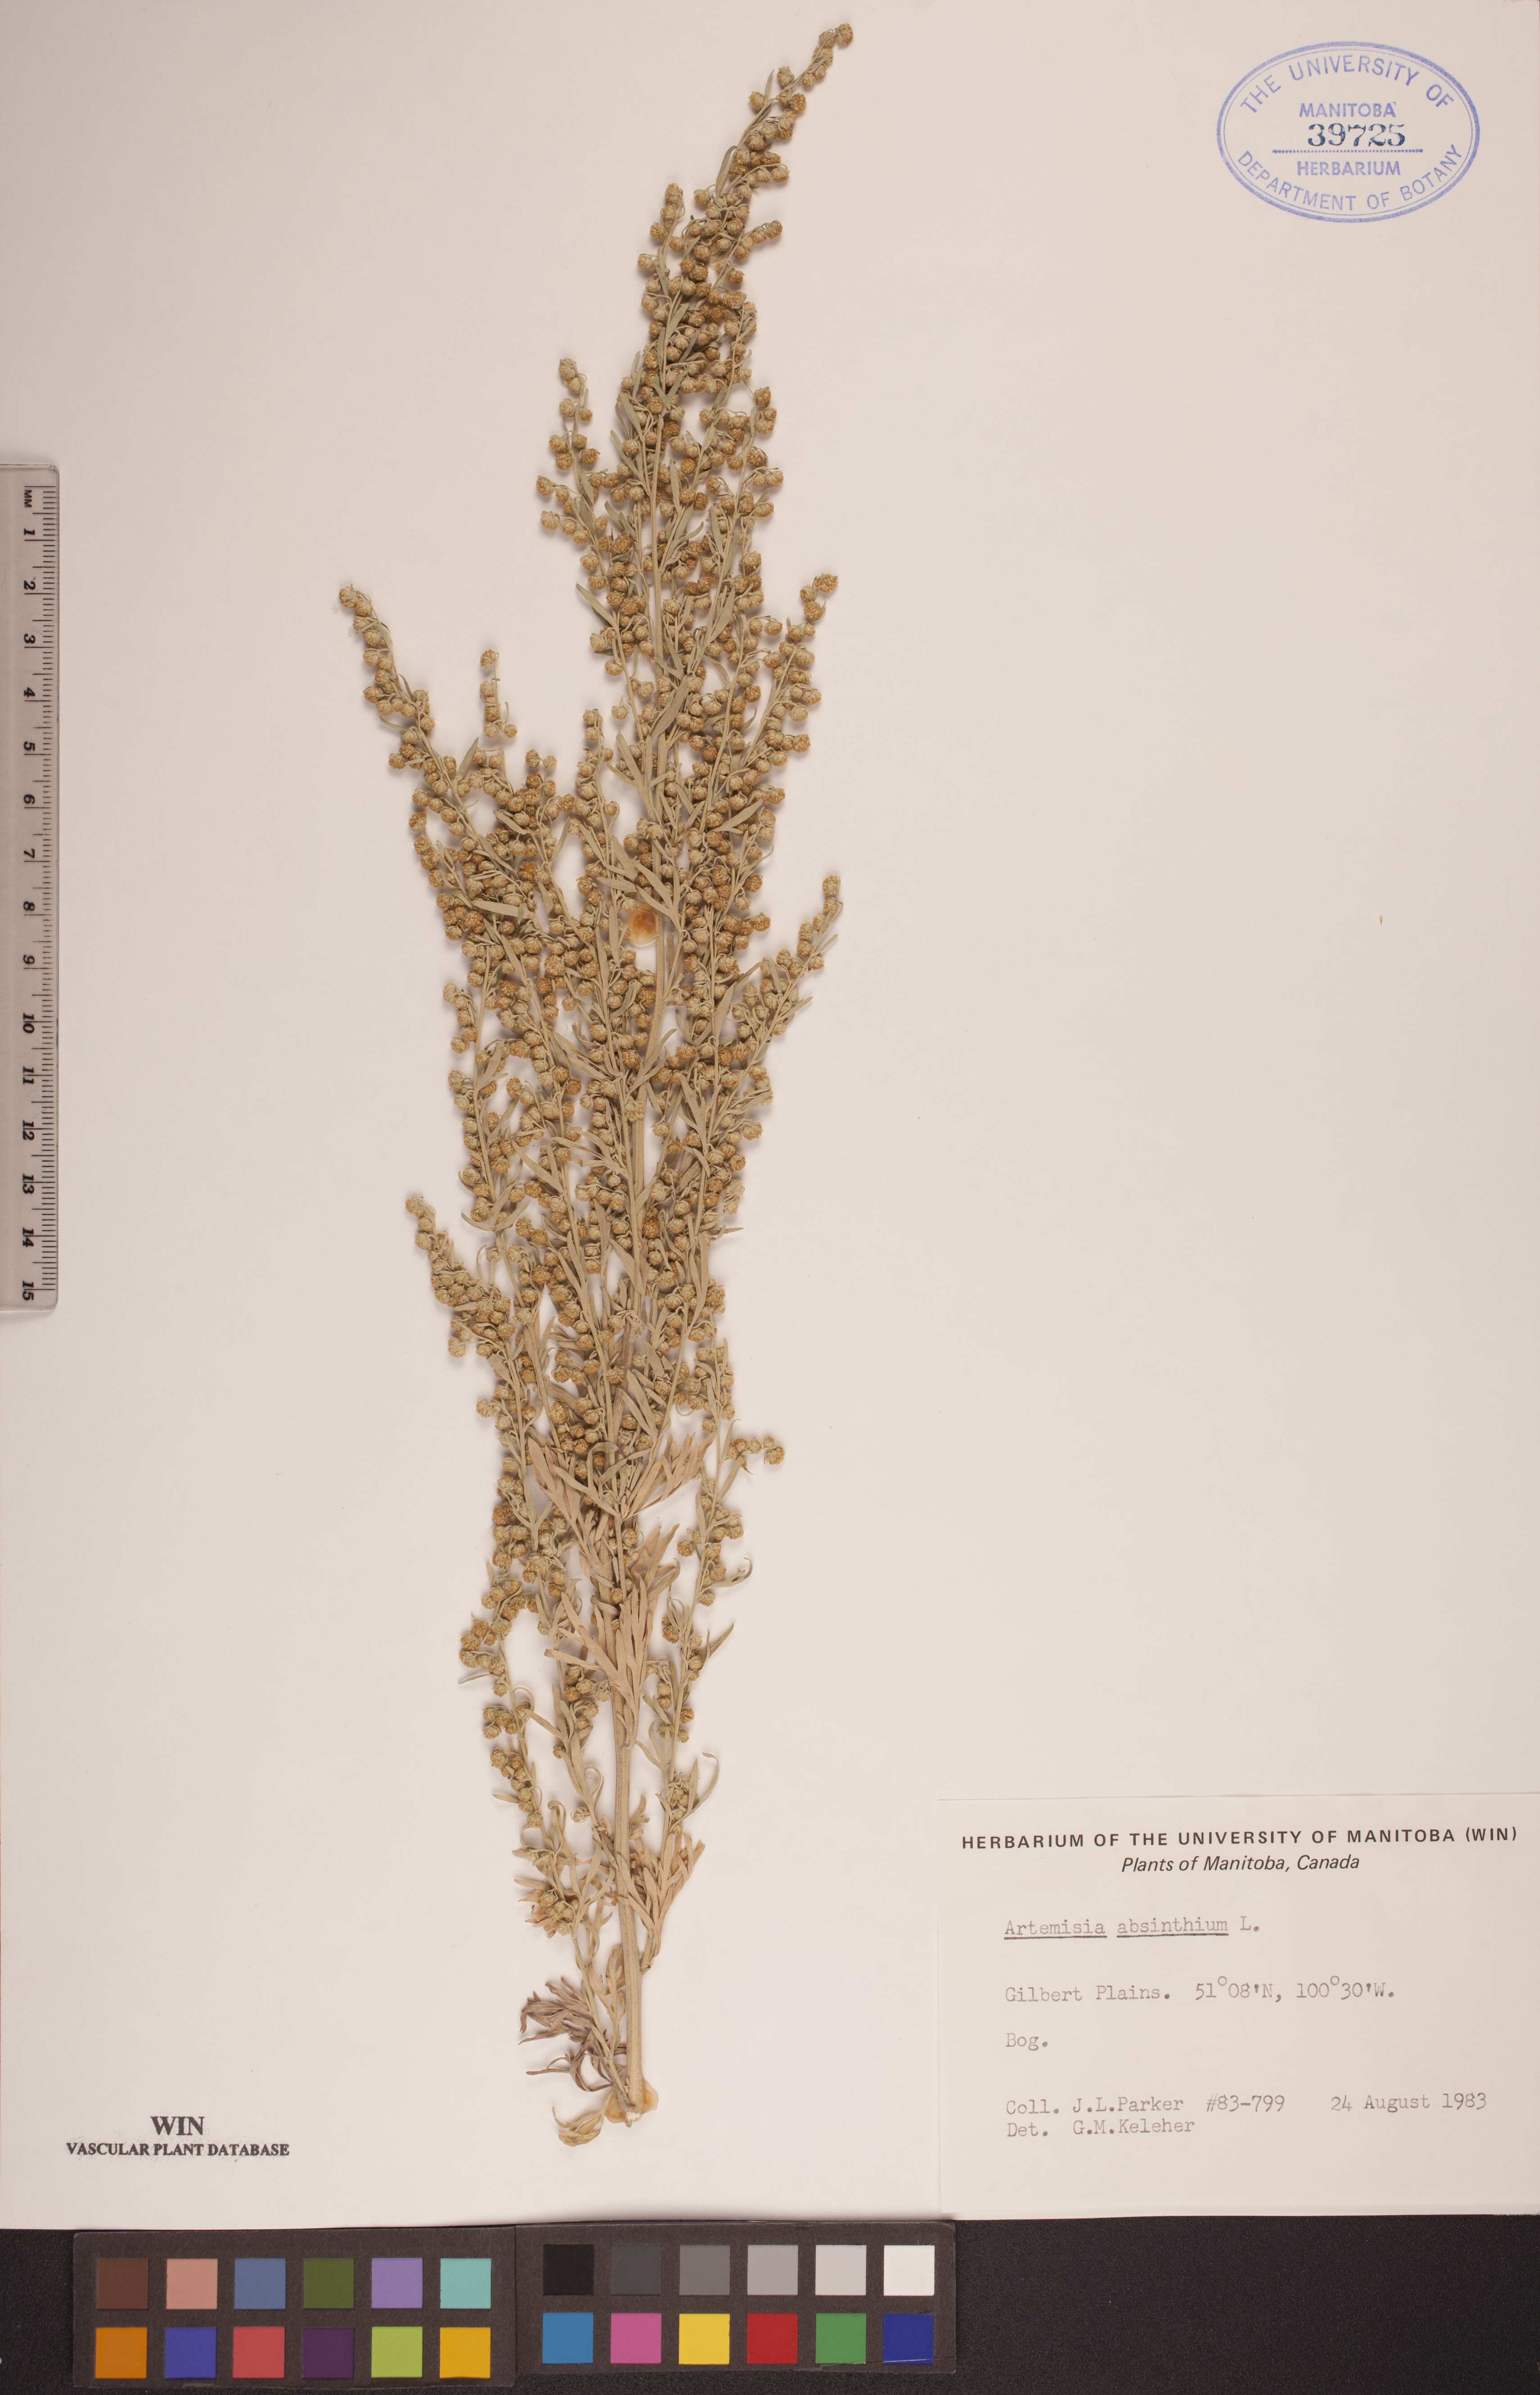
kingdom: Plantae
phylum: Tracheophyta
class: Magnoliopsida
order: Asterales
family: Asteraceae
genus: Artemisia
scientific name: Artemisia absinthium
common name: Wormwood
